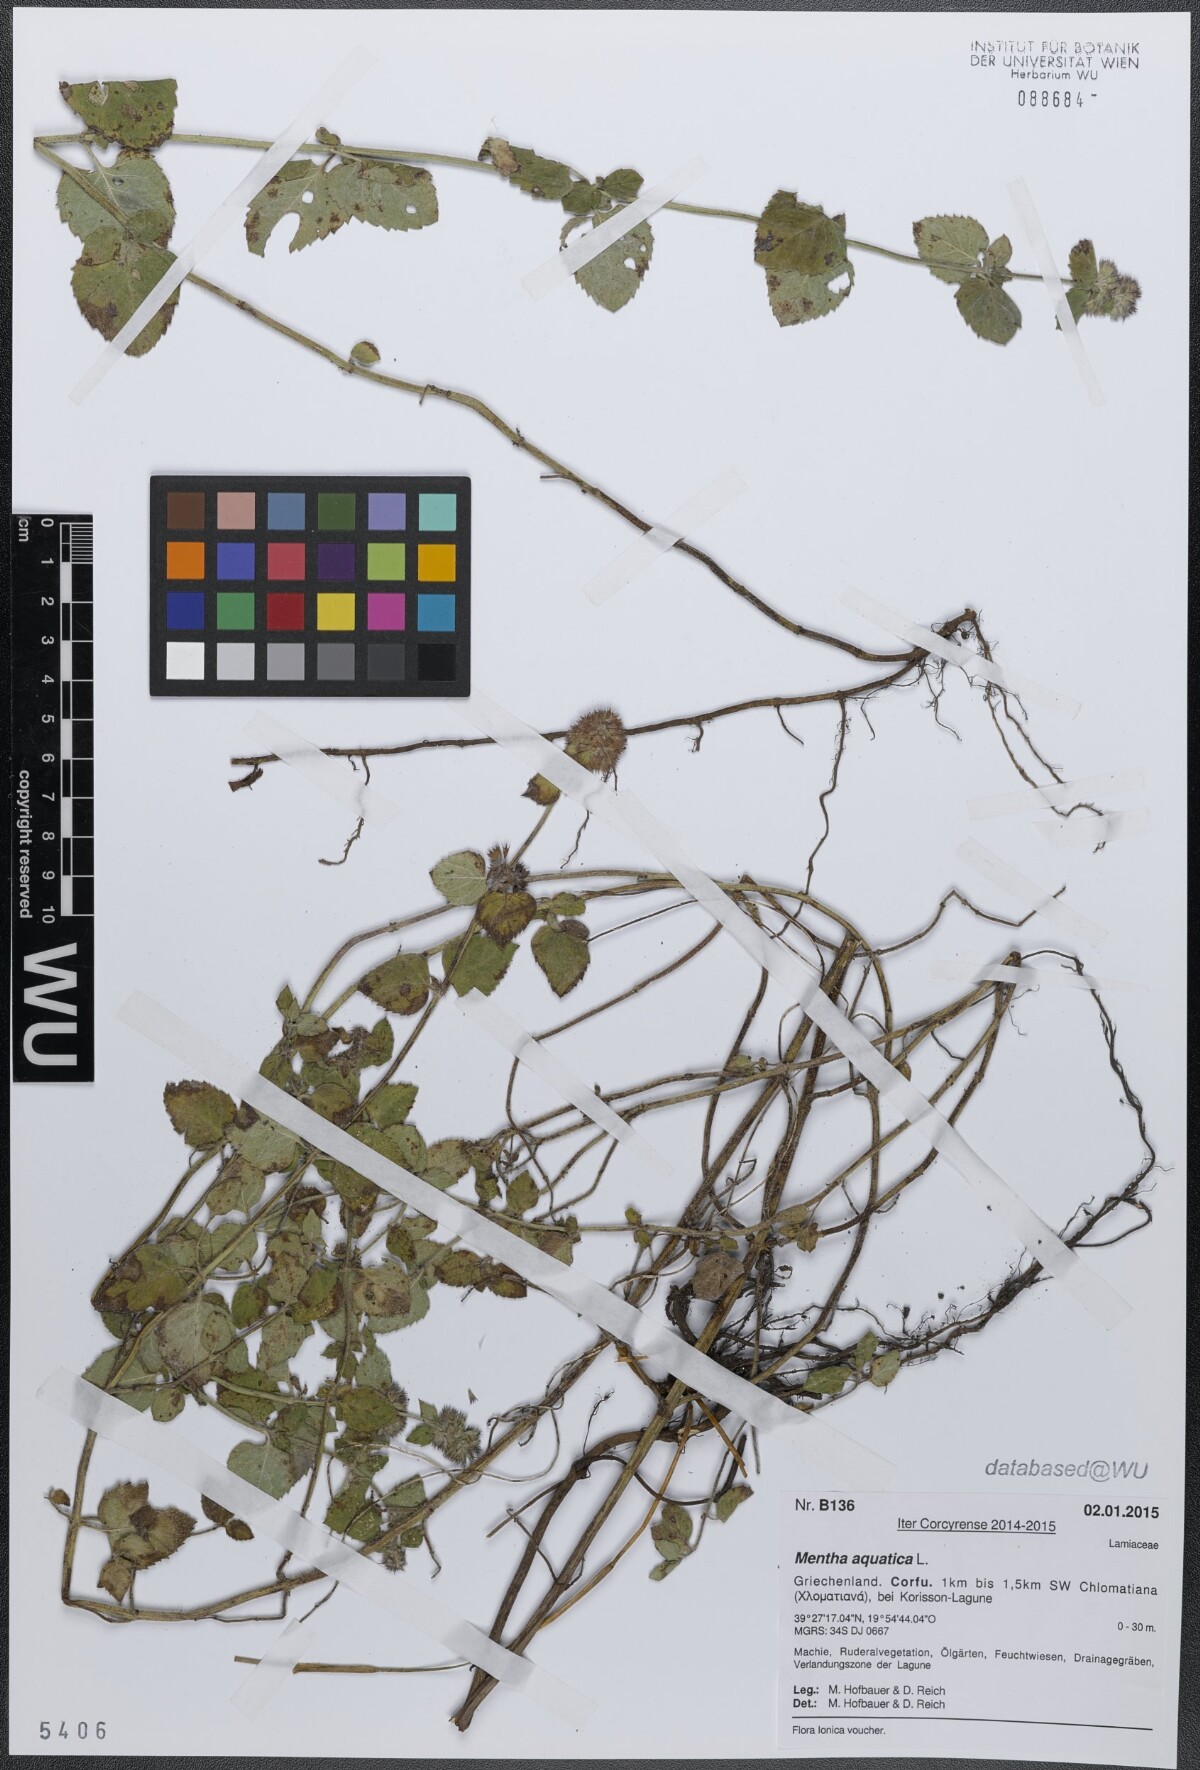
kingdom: Plantae
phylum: Tracheophyta
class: Magnoliopsida
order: Lamiales
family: Lamiaceae
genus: Mentha
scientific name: Mentha aquatica
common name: Water mint
